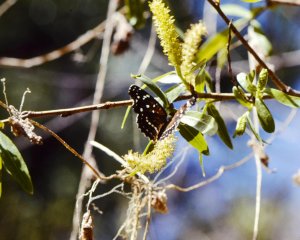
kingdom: Animalia
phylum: Arthropoda
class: Insecta
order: Lepidoptera
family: Nymphalidae
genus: Anthanassa
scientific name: Anthanassa texana
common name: Texan Crescent
